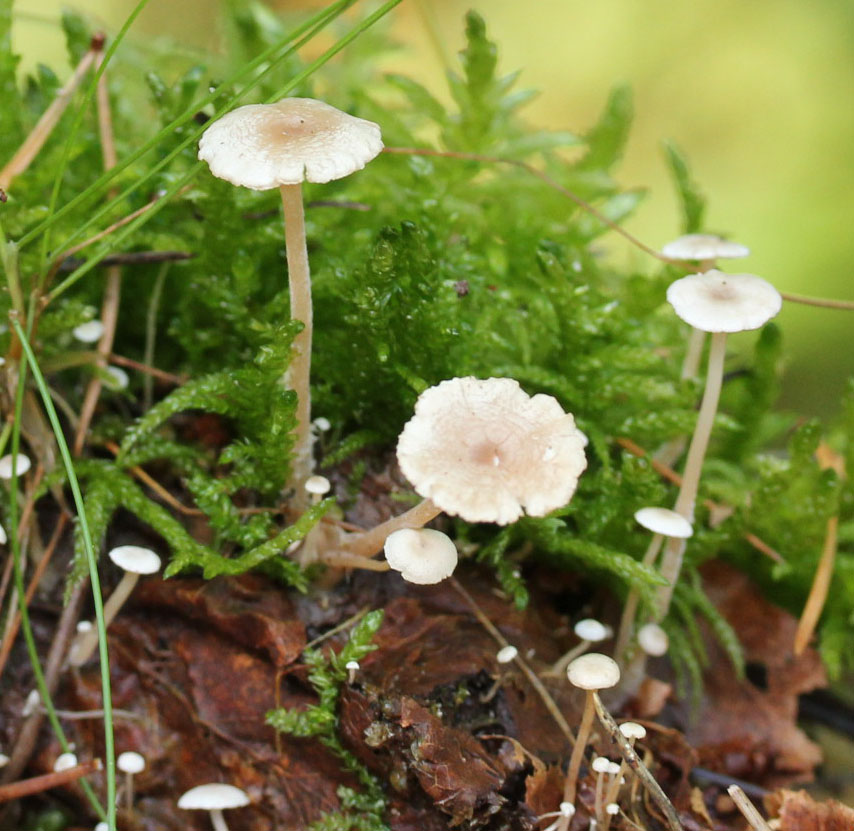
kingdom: Fungi
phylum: Basidiomycota
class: Agaricomycetes
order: Agaricales
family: Tricholomataceae
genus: Collybia
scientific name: Collybia cirrhata
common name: silke-lighat
